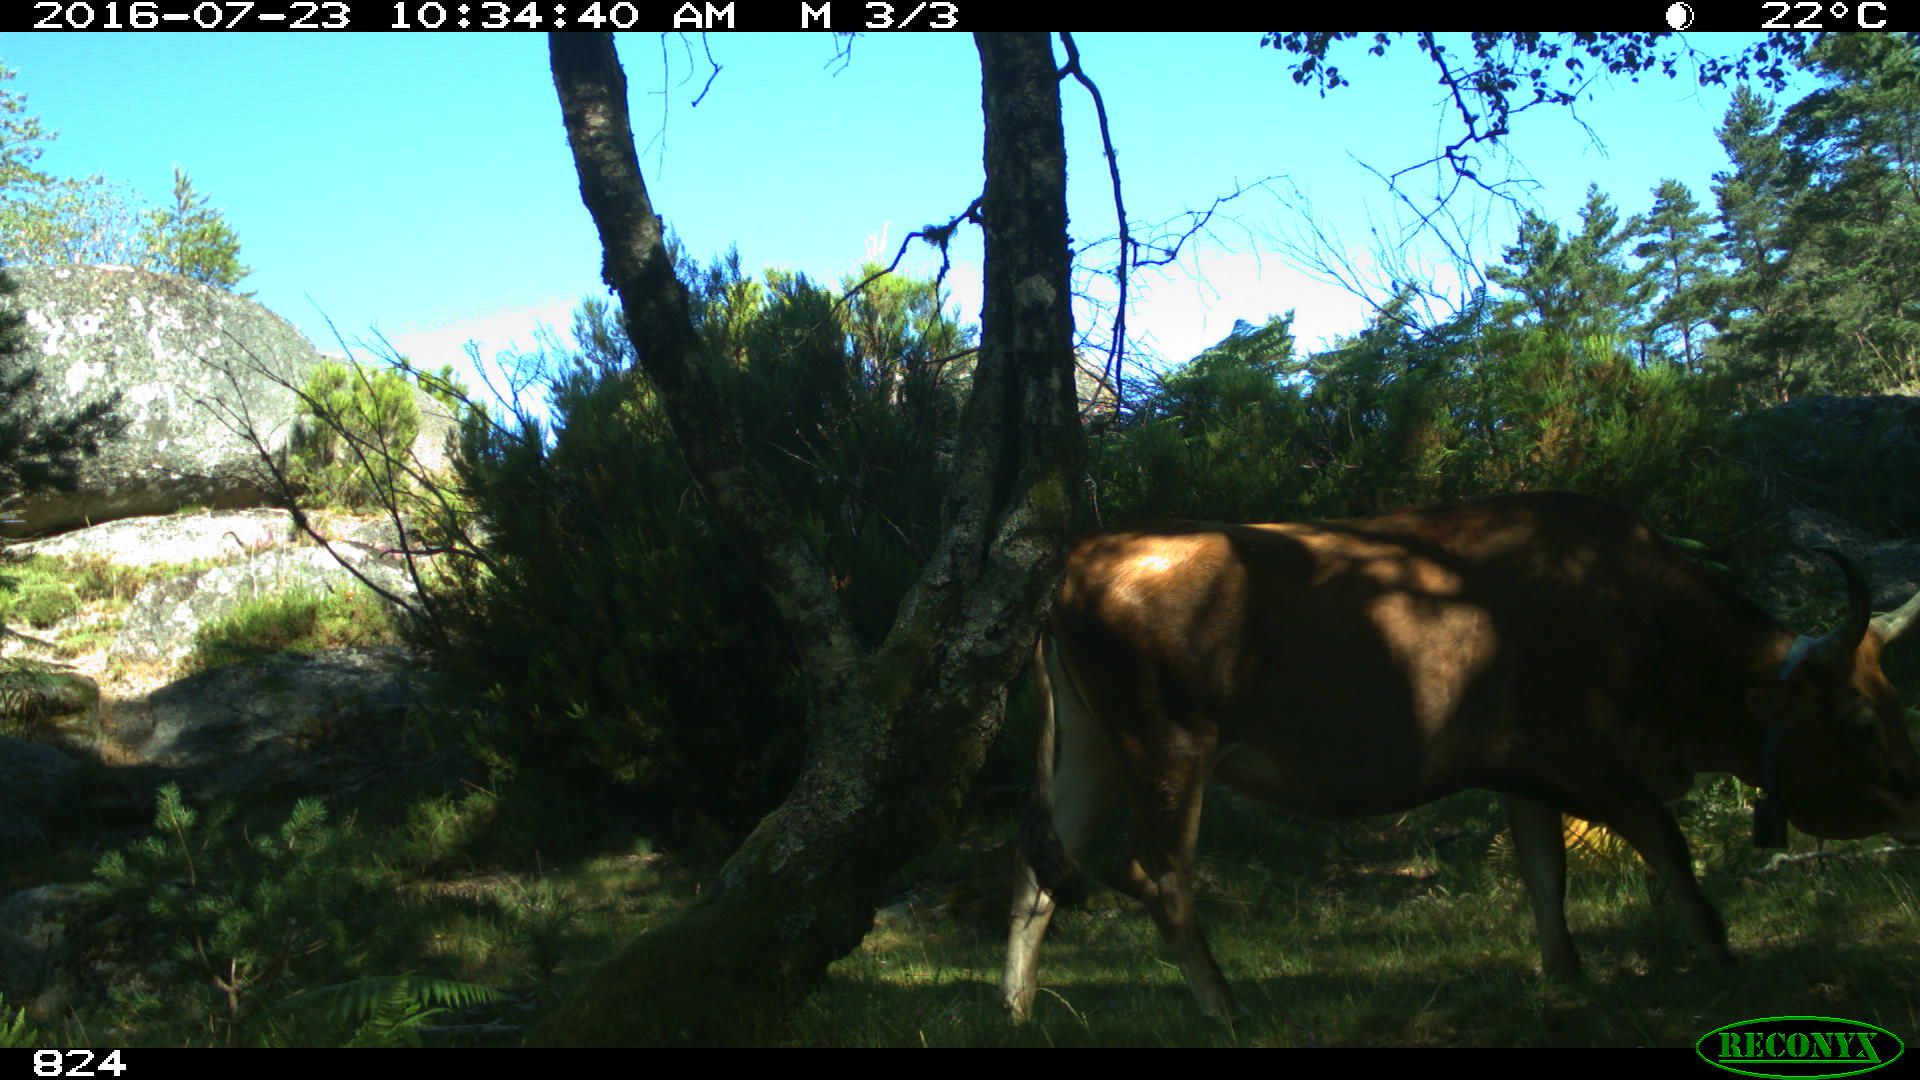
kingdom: Animalia
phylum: Chordata
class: Mammalia
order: Artiodactyla
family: Bovidae
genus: Bos
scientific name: Bos taurus
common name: Domesticated cattle
